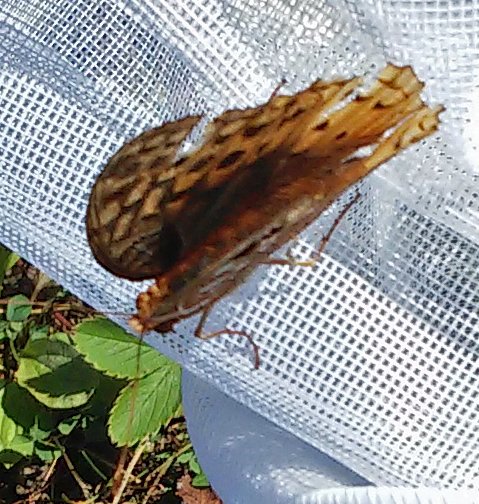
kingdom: Animalia
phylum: Arthropoda
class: Insecta
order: Lepidoptera
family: Nymphalidae
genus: Speyeria
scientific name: Speyeria cybele
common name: Great Spangled Fritillary
